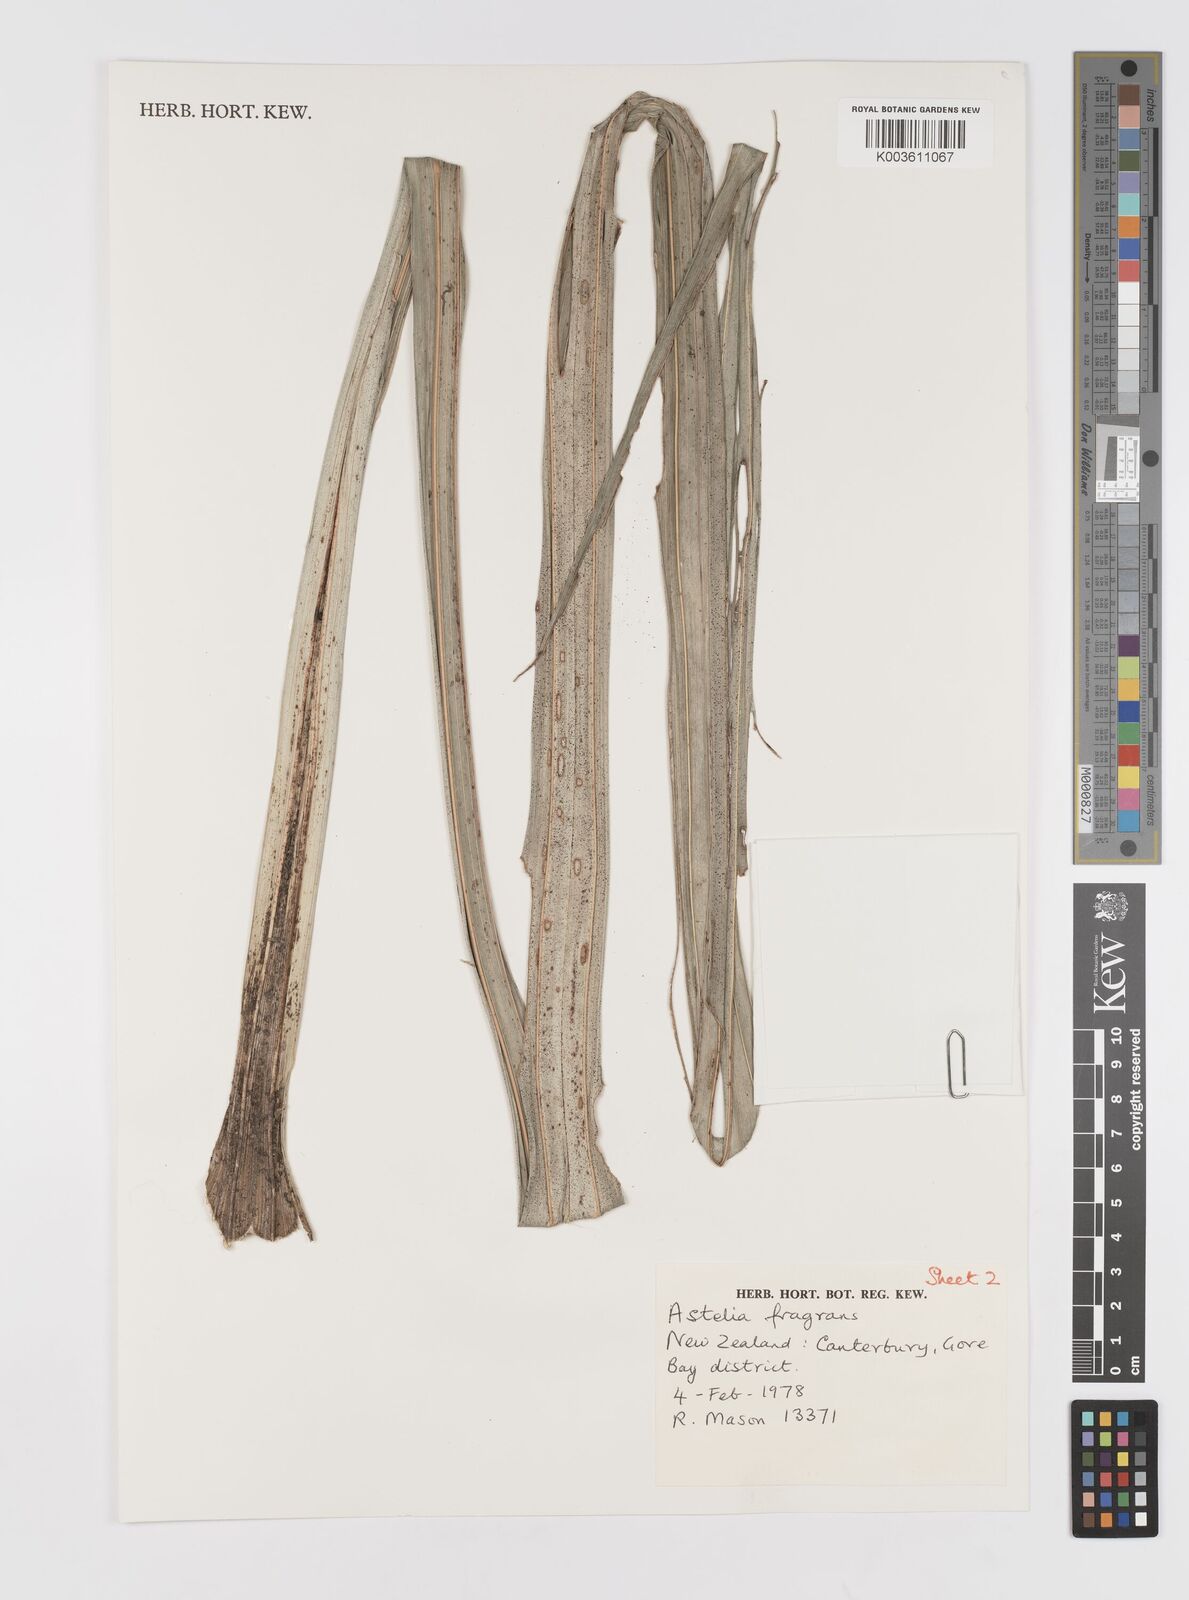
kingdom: Plantae
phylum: Tracheophyta
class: Liliopsida
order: Asparagales
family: Asteliaceae
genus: Astelia
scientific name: Astelia fragrans
